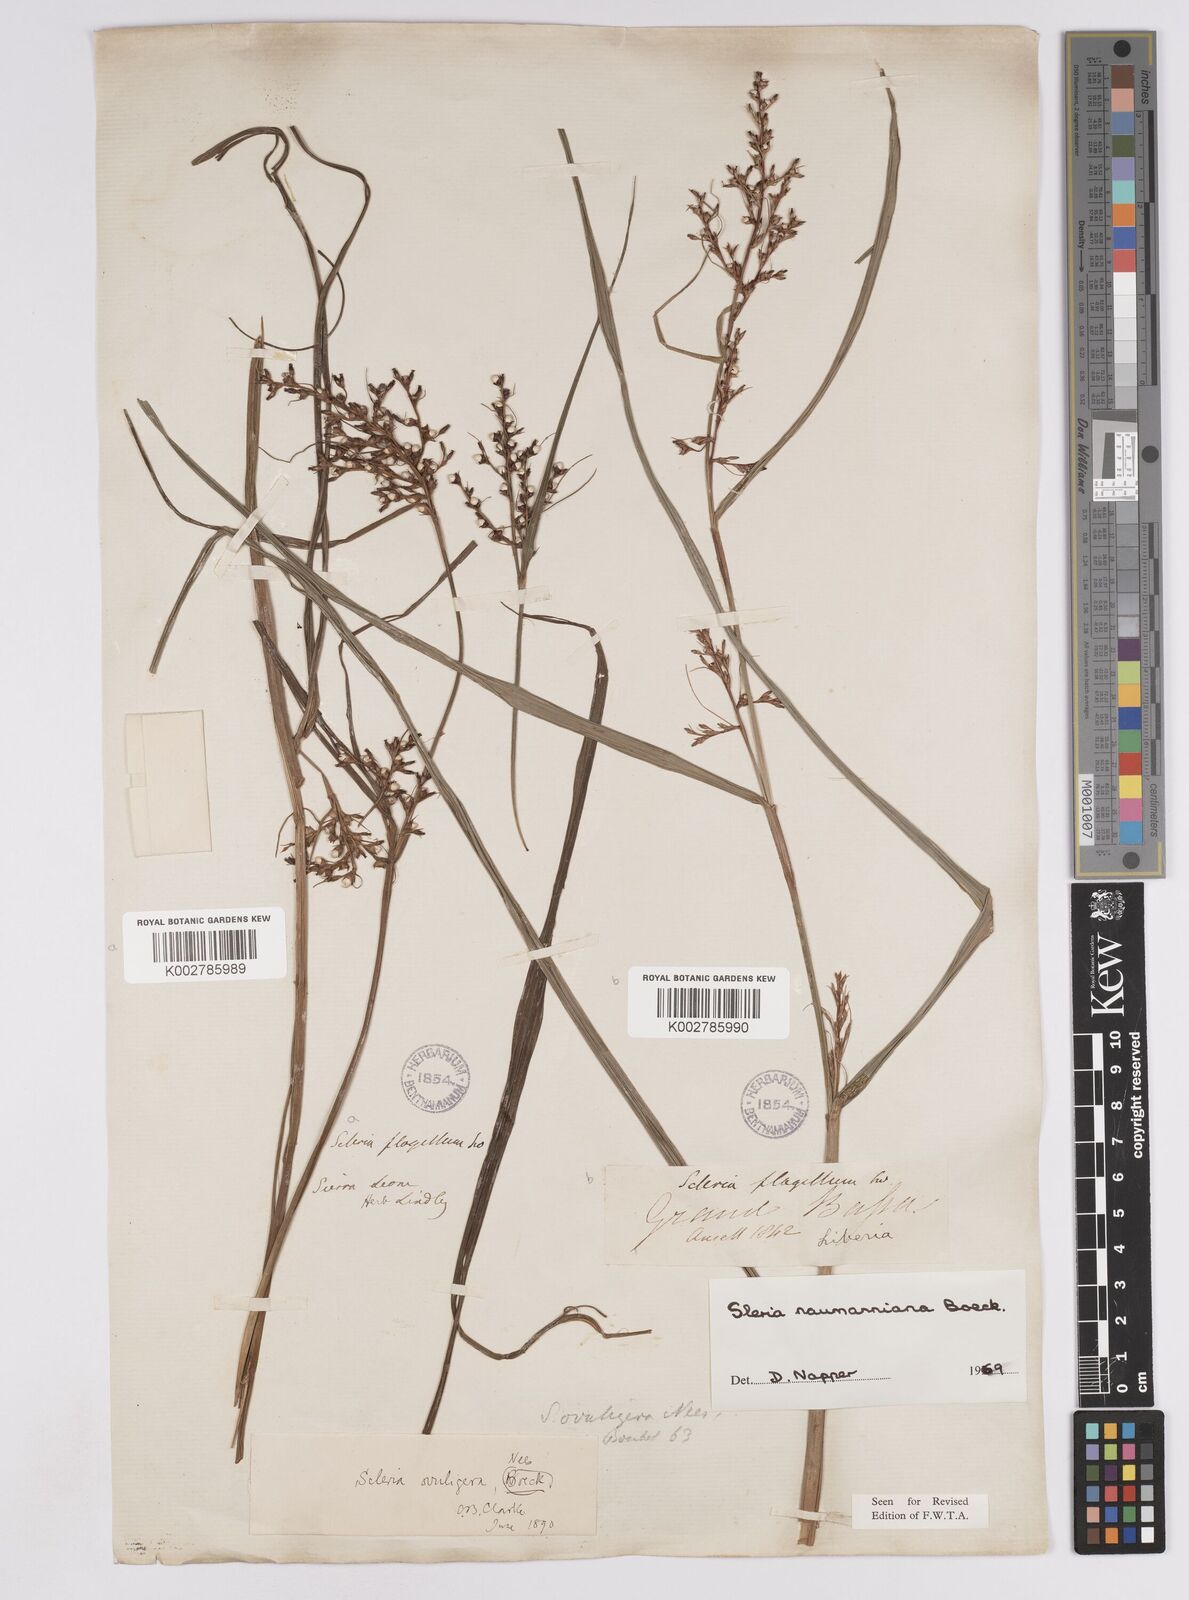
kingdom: Plantae
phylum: Tracheophyta
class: Liliopsida
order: Poales
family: Cyperaceae
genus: Scleria
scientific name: Scleria naumanniana
